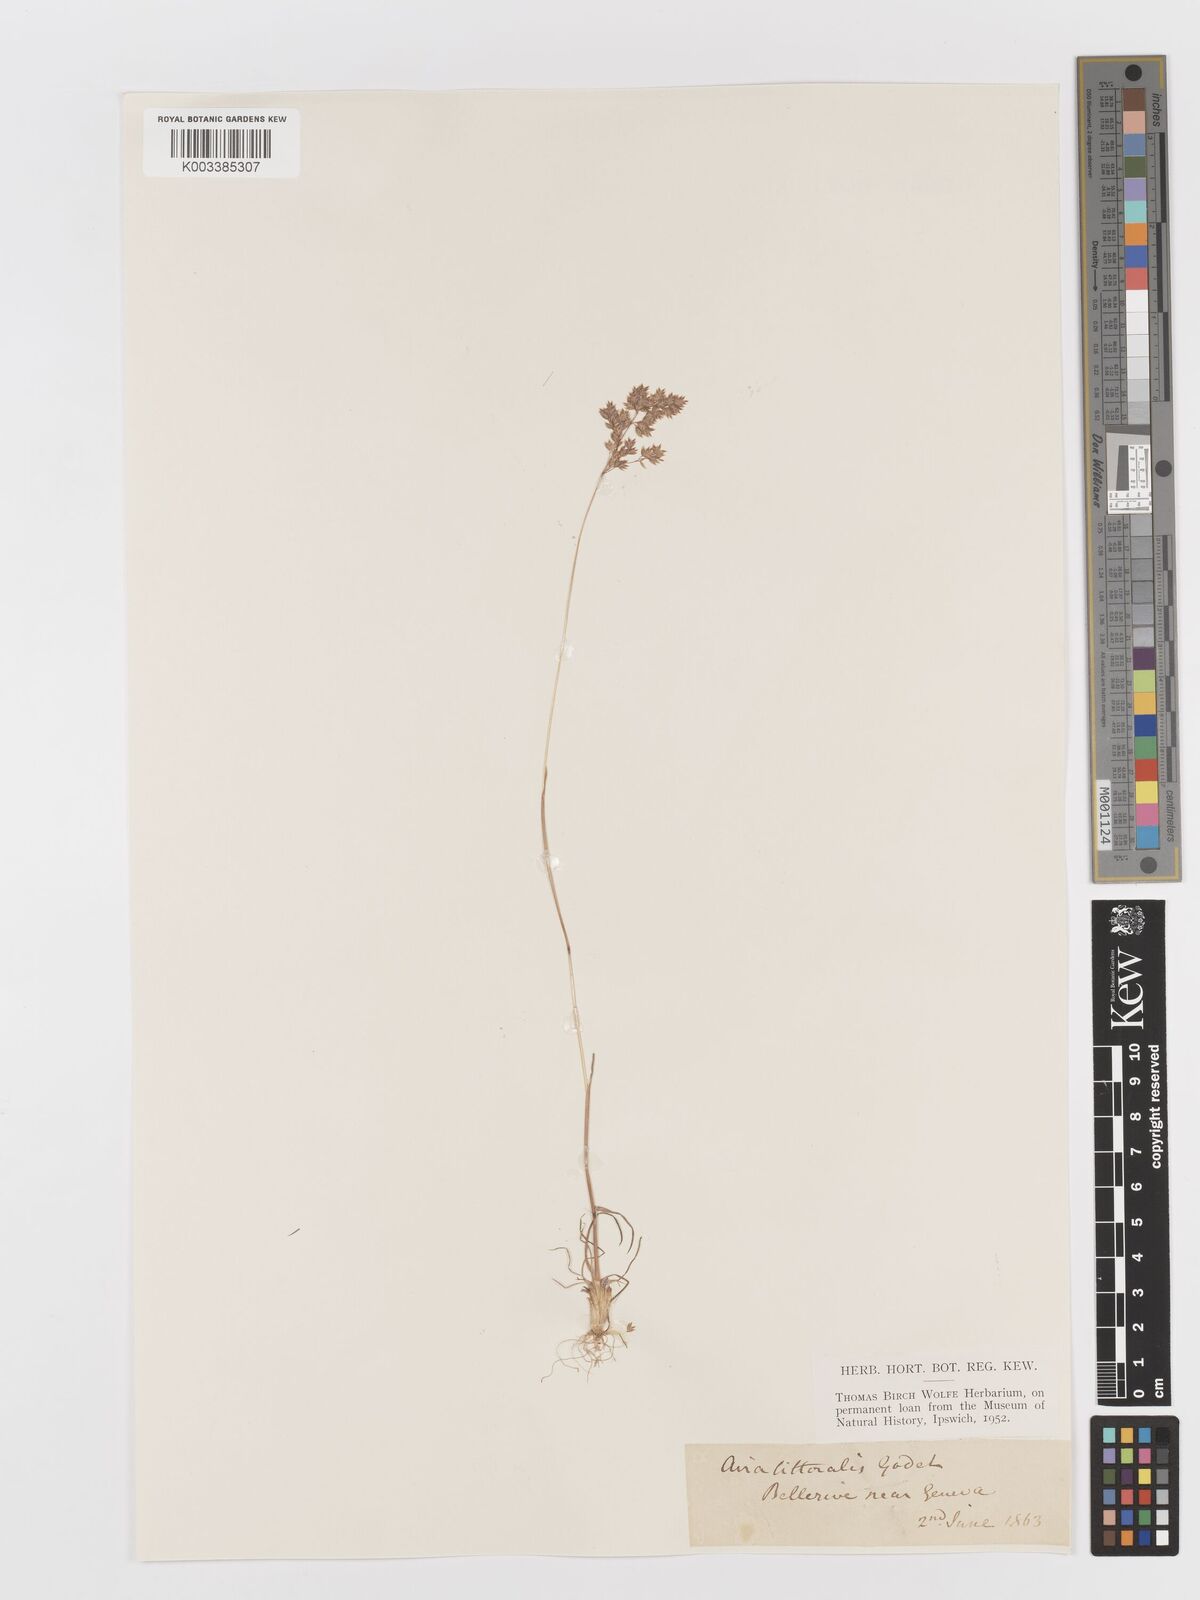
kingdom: Plantae
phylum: Tracheophyta
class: Liliopsida
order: Poales
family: Poaceae
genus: Deschampsia
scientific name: Deschampsia cespitosa
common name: Tufted hair-grass
